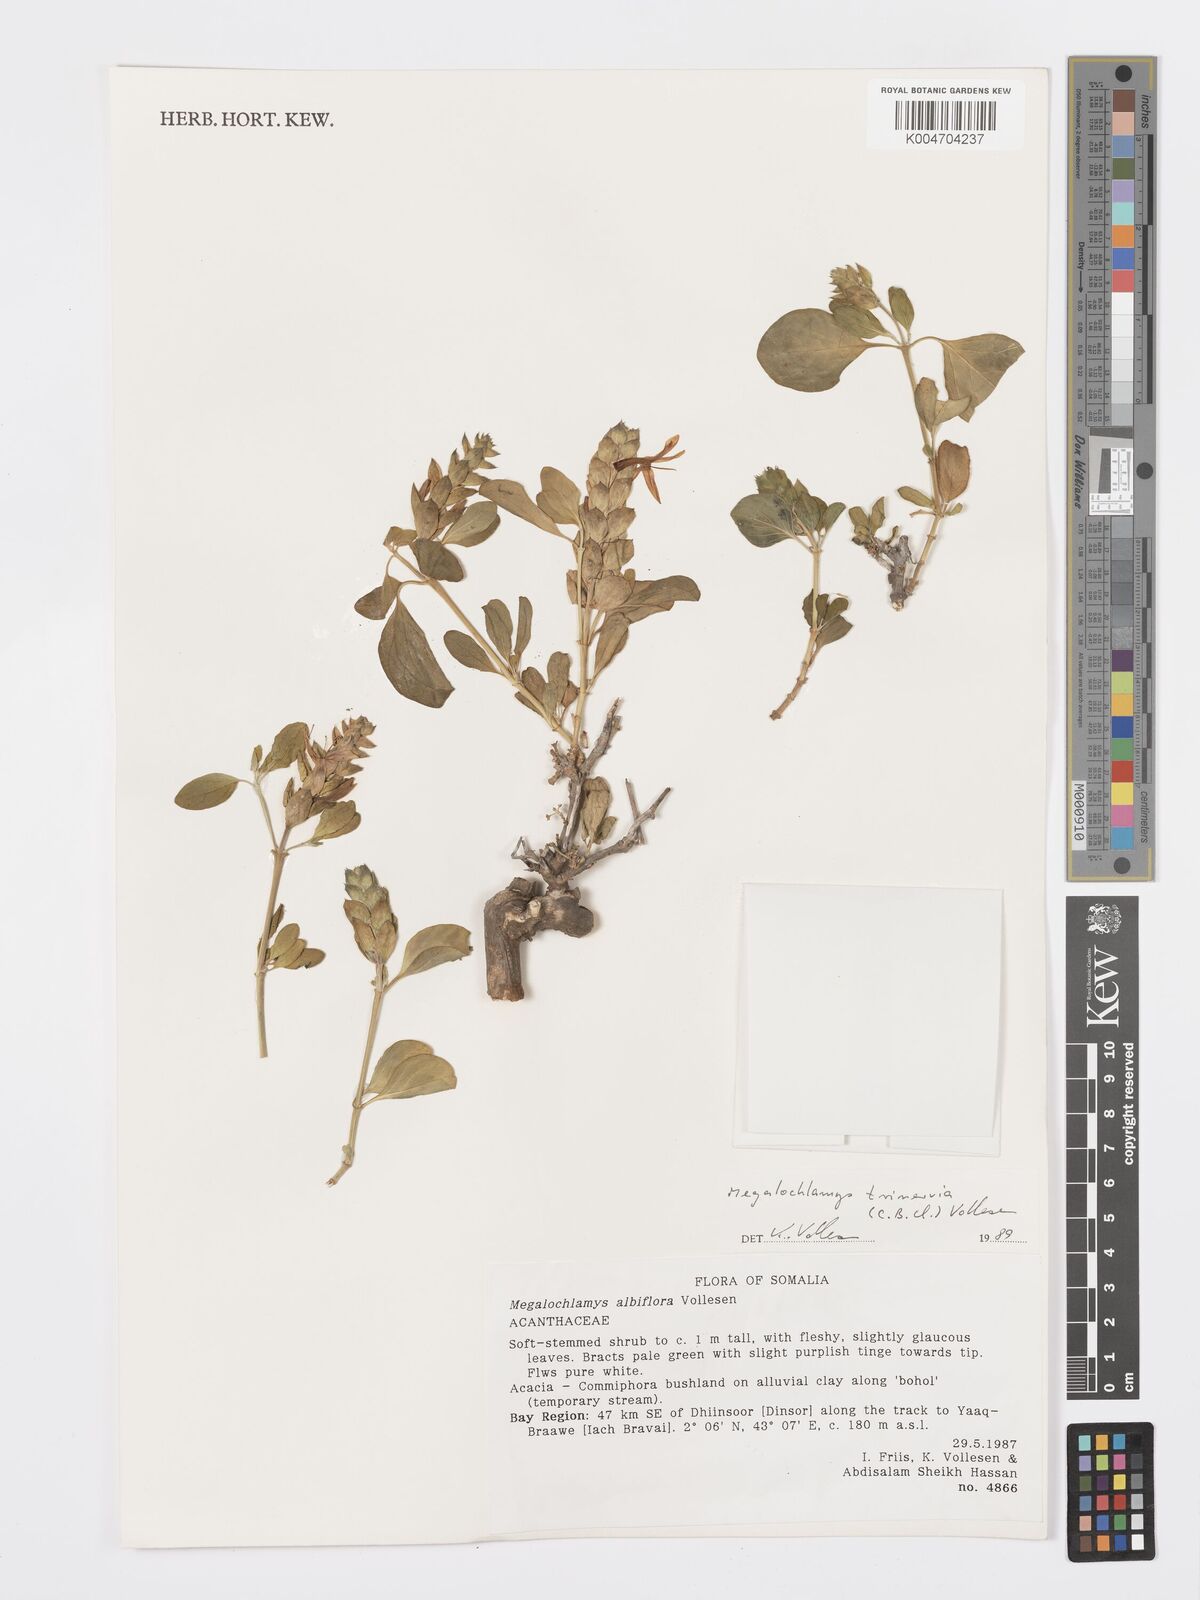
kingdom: Plantae
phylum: Tracheophyta
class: Magnoliopsida
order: Lamiales
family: Acanthaceae
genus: Megalochlamys
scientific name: Megalochlamys trinervia
